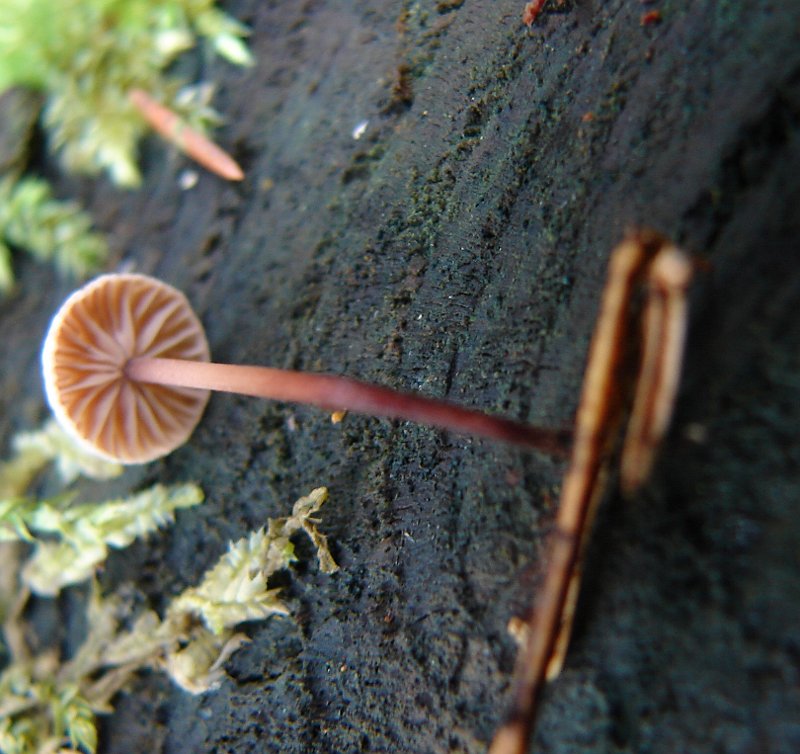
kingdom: Fungi
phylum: Basidiomycota
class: Agaricomycetes
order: Agaricales
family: Omphalotaceae
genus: Paragymnopus
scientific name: Paragymnopus perforans
